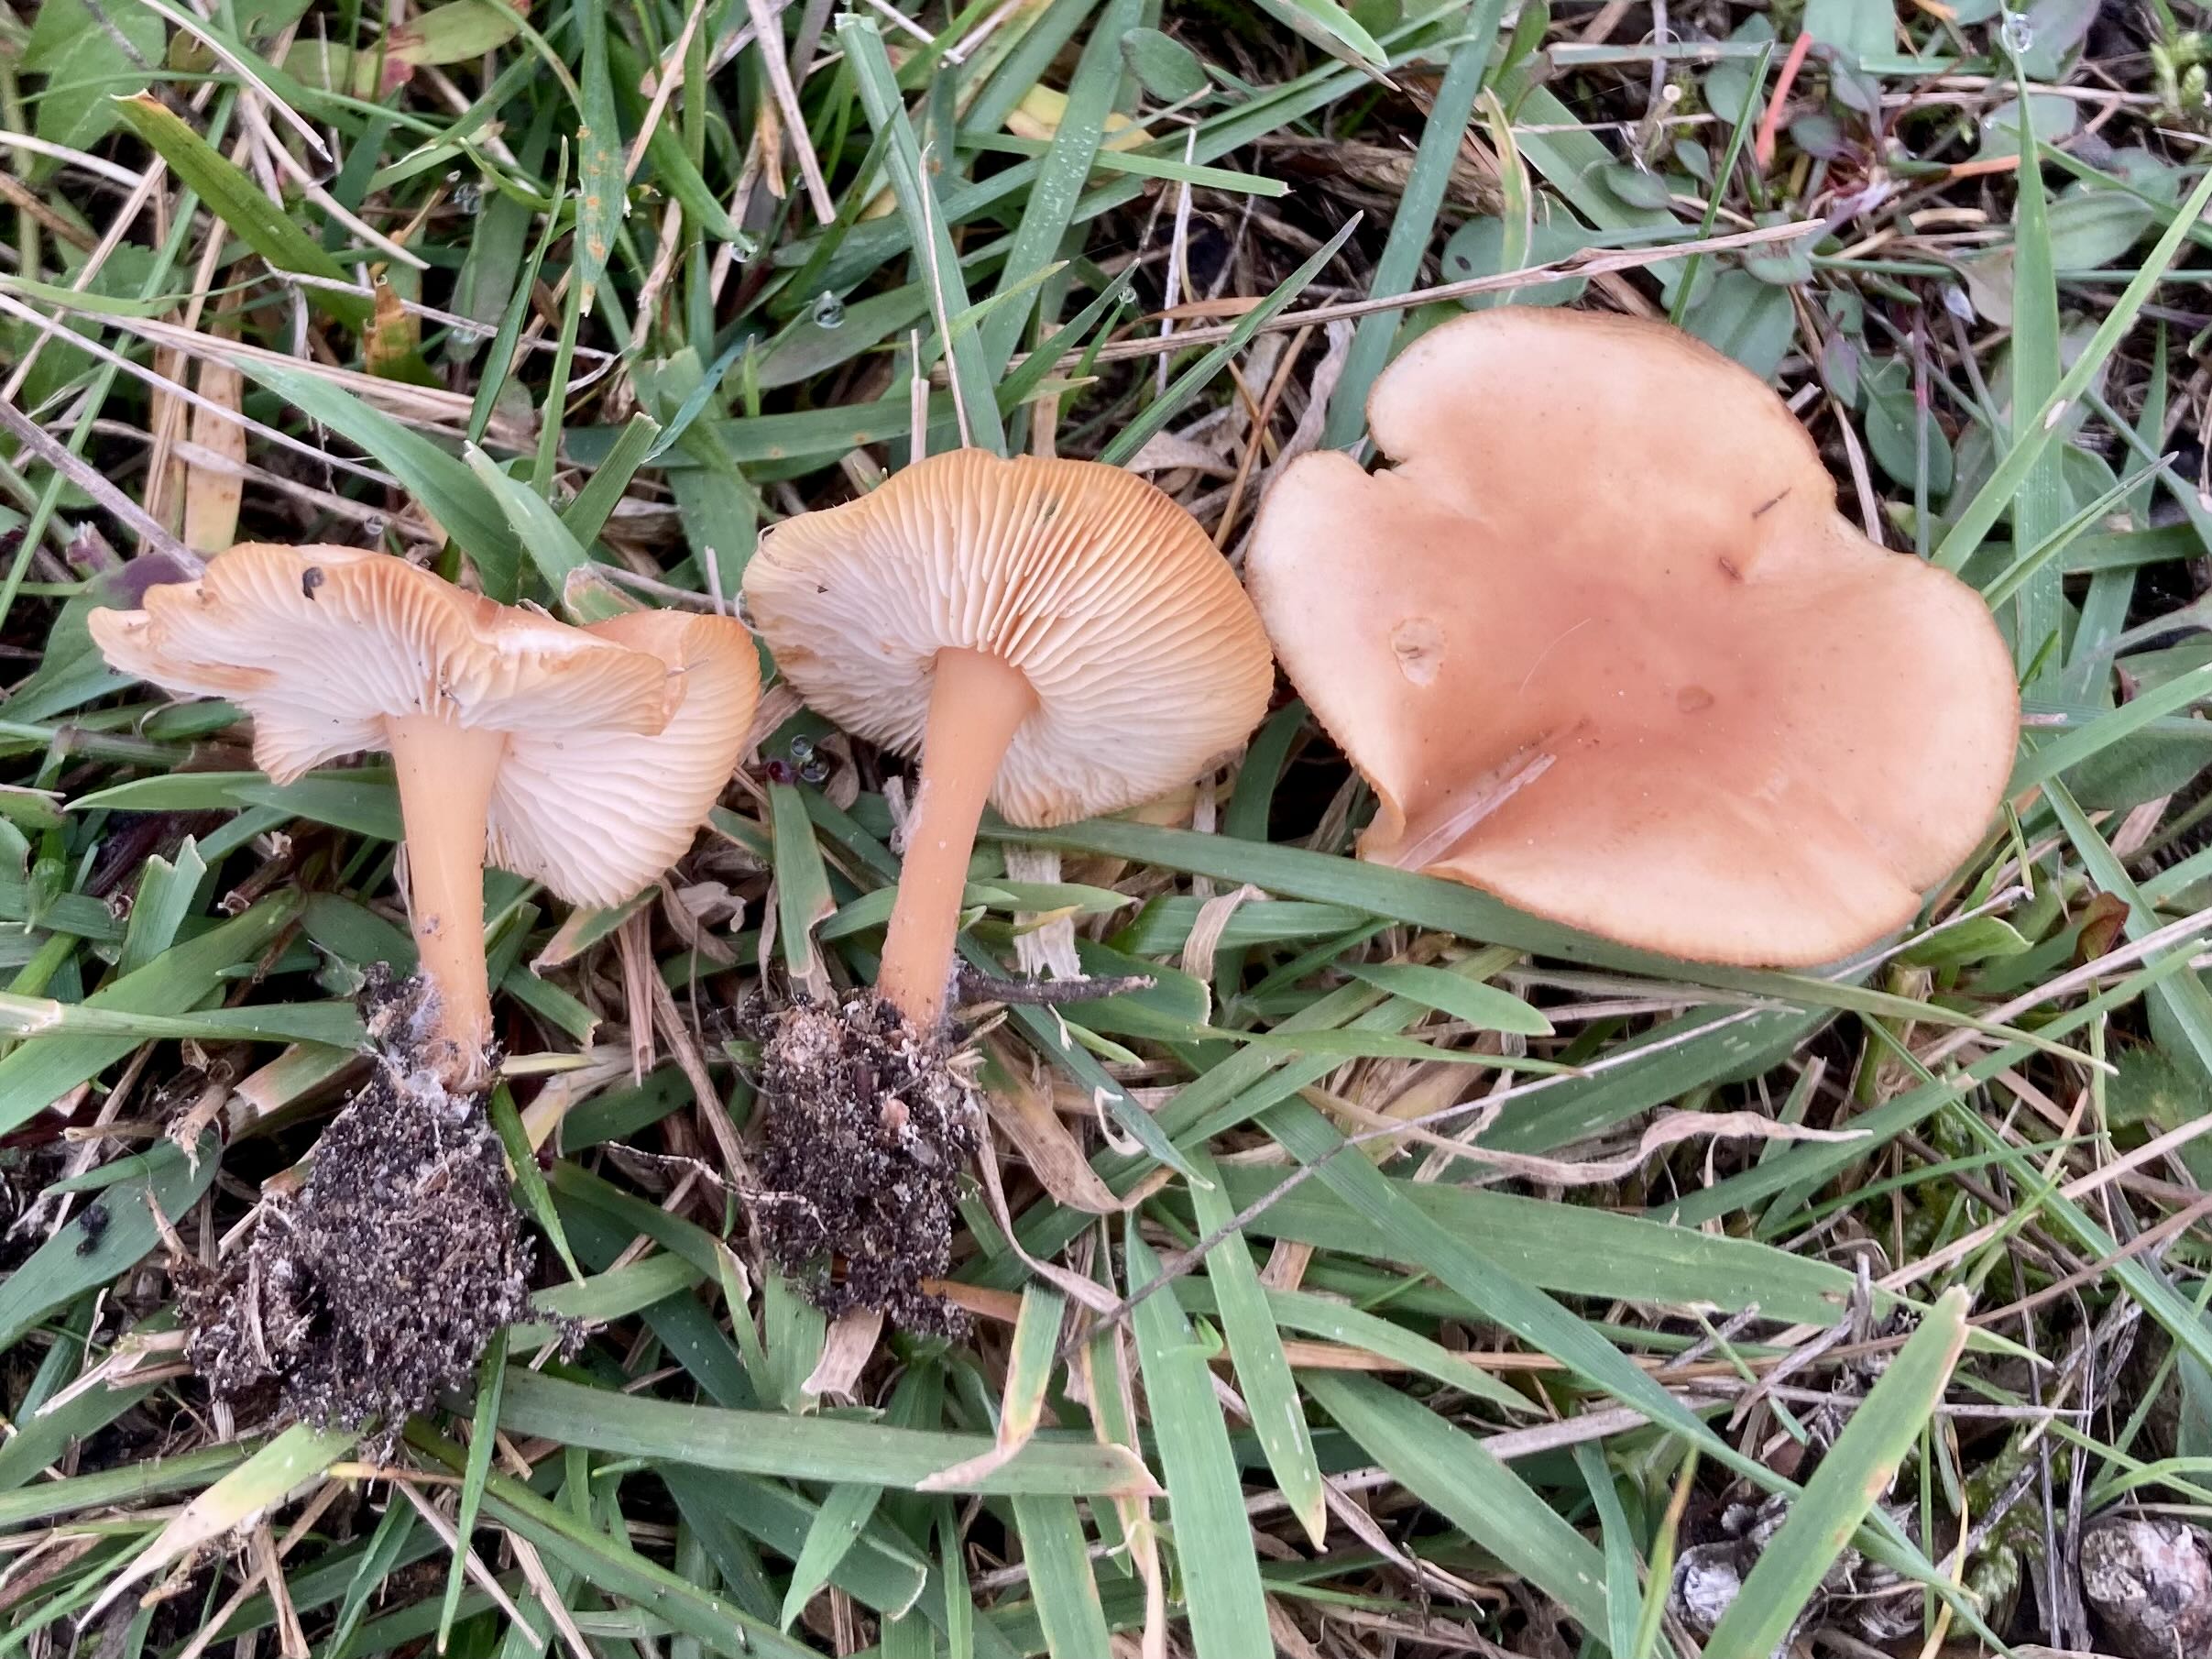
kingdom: Fungi
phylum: Basidiomycota
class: Agaricomycetes
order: Agaricales
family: Omphalotaceae
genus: Gymnopus
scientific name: Gymnopus
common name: fladhat
